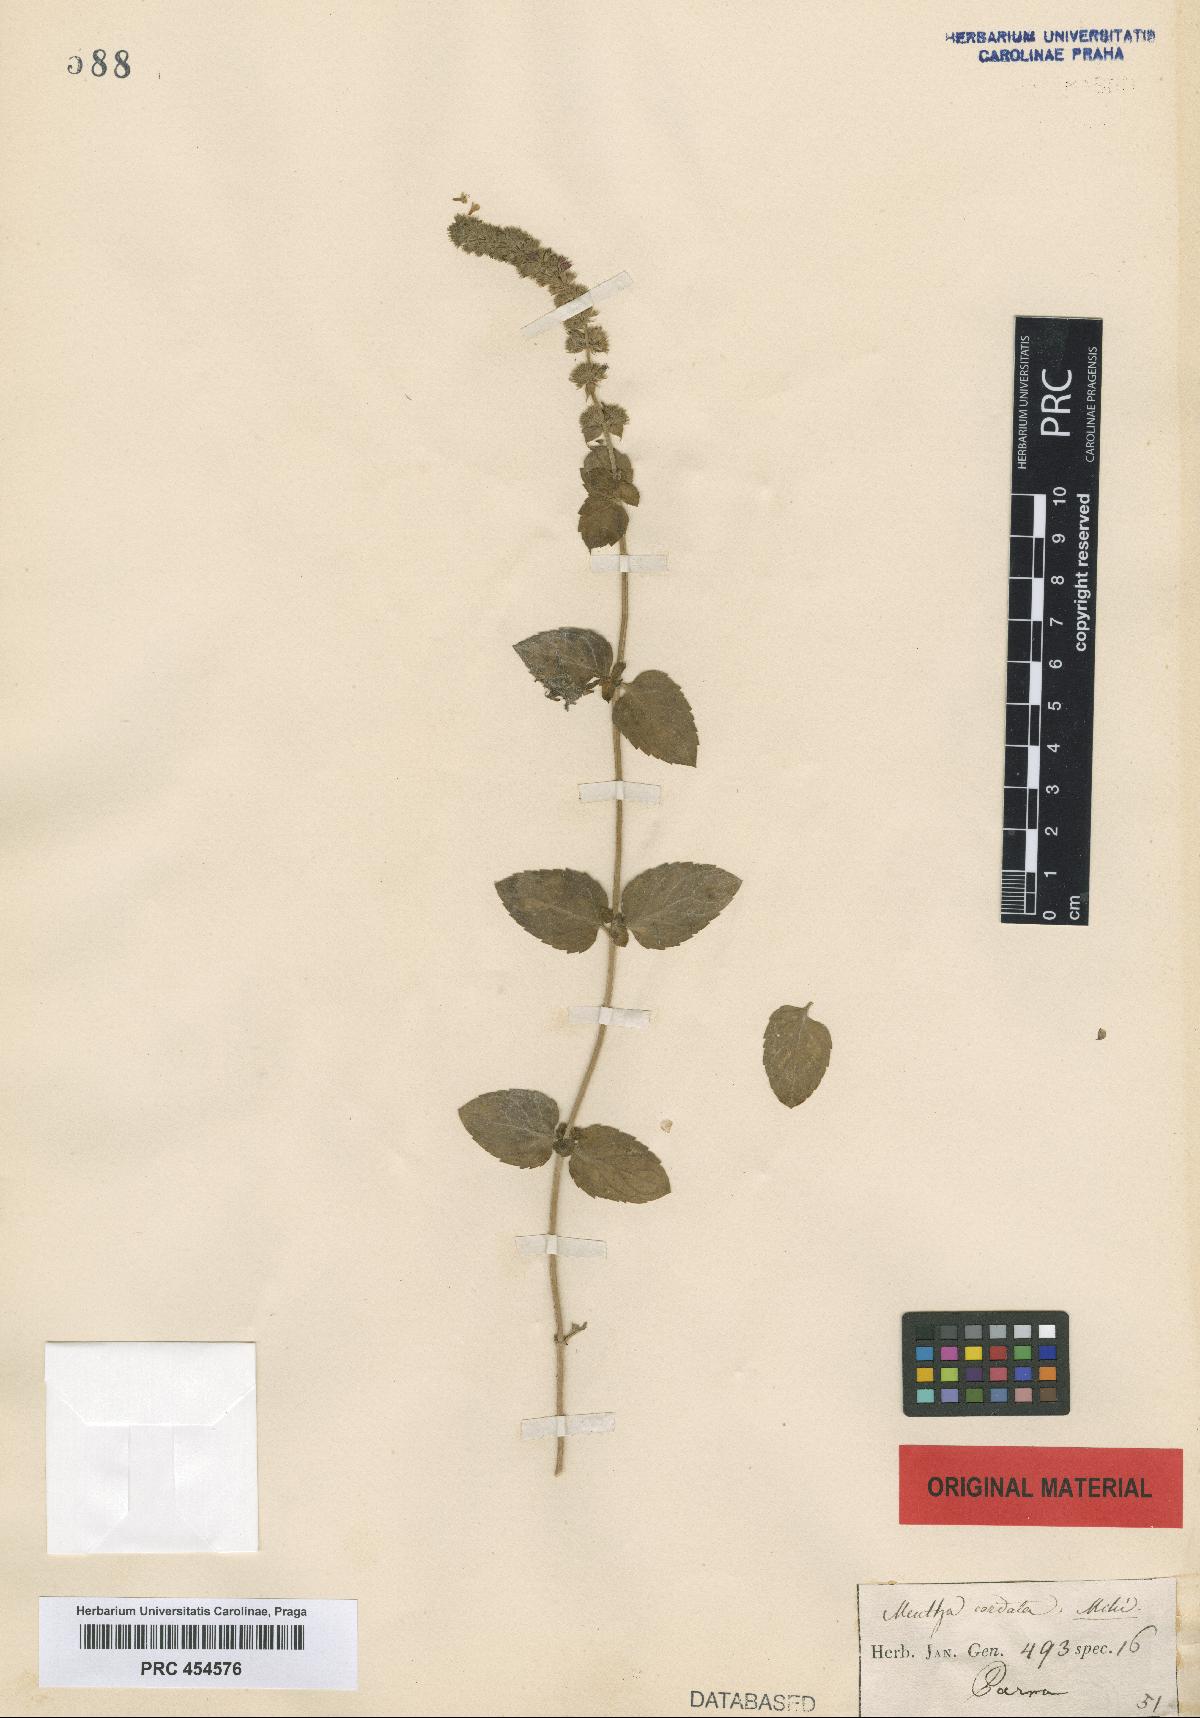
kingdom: Plantae
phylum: Tracheophyta
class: Magnoliopsida
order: Lamiales
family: Lamiaceae
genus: Mentha
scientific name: Mentha aquatica
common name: Water mint
